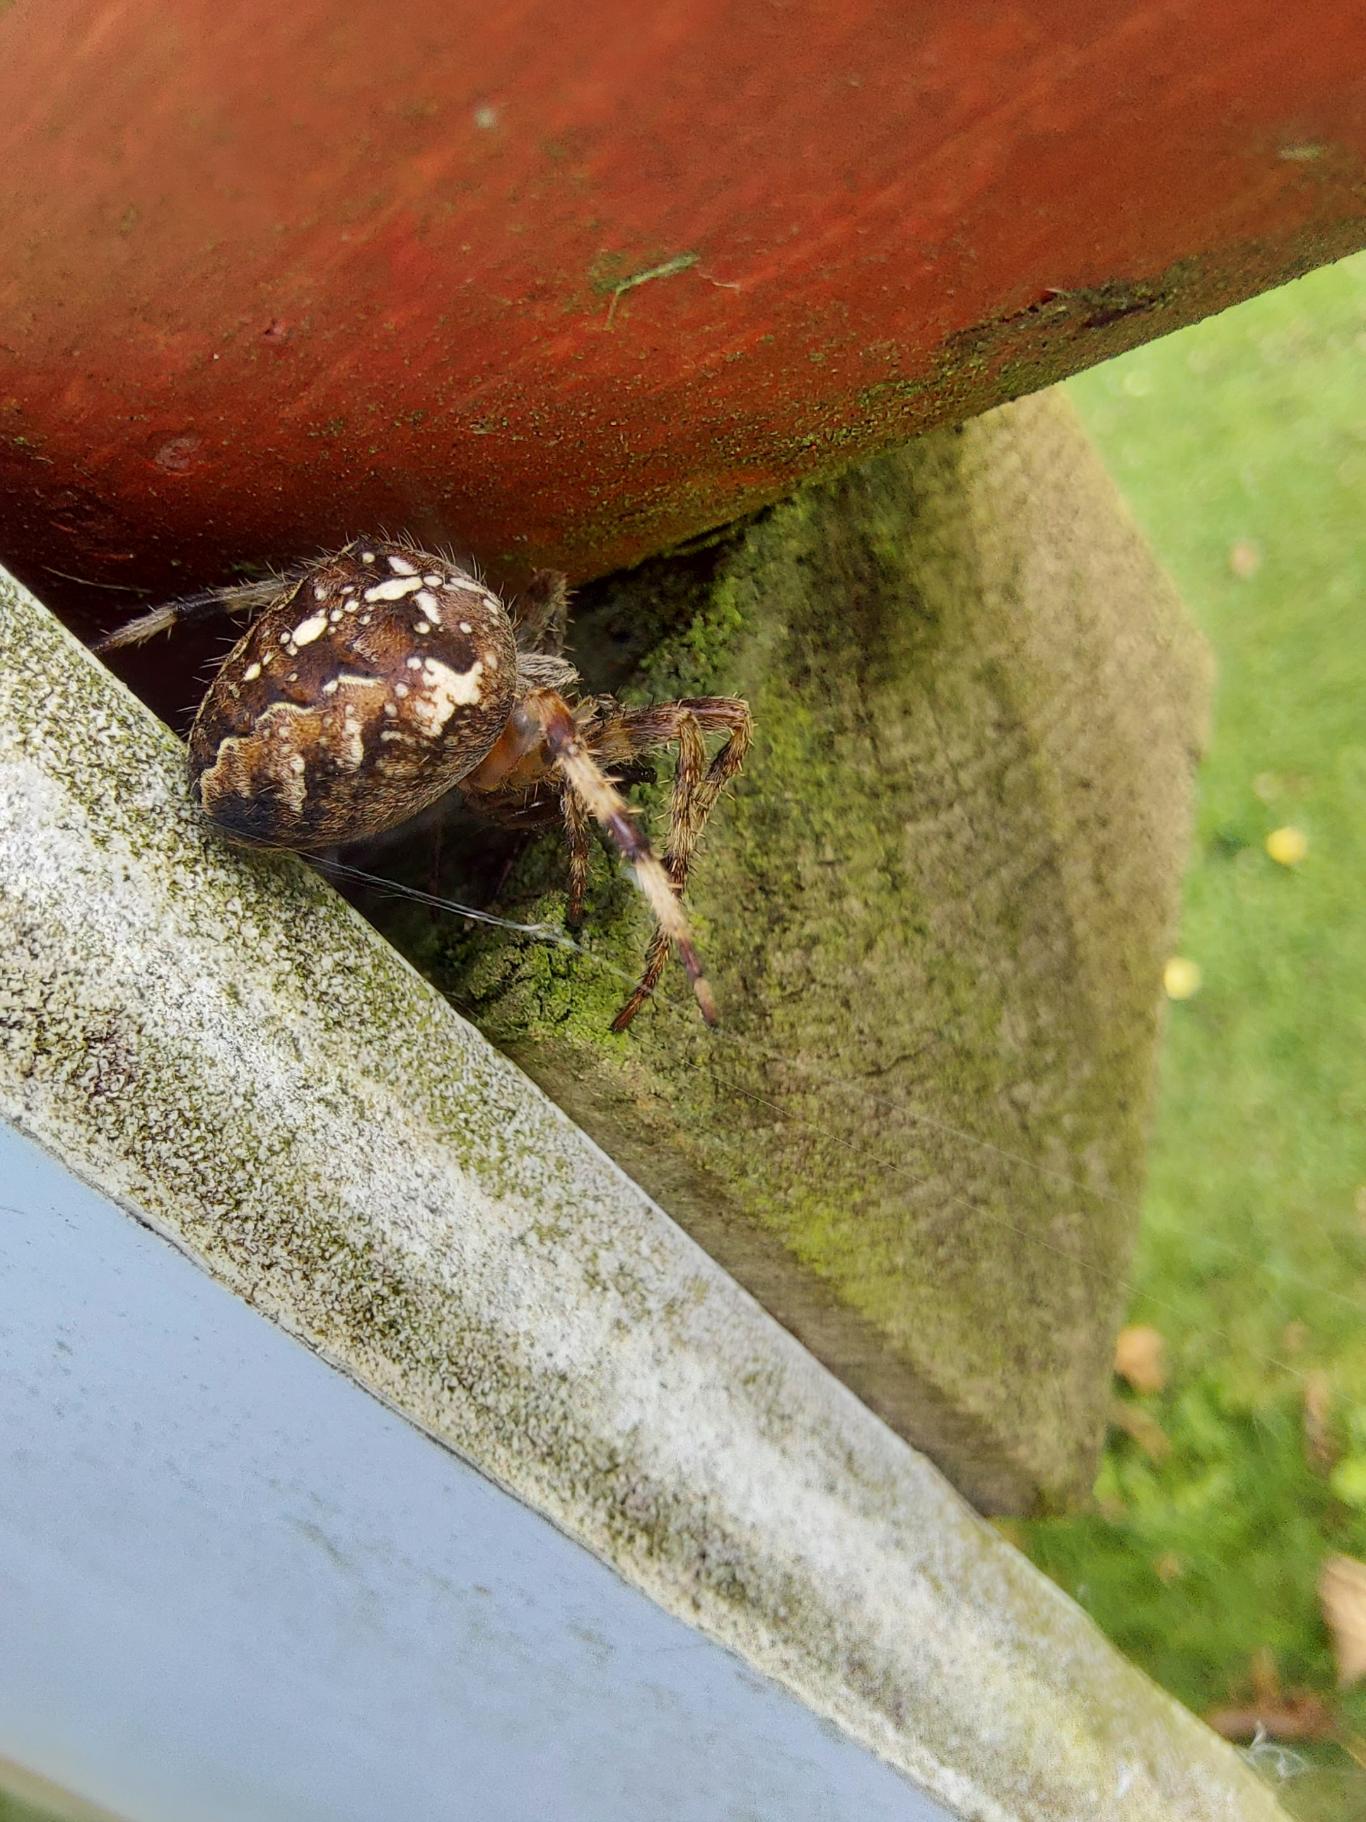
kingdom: Animalia
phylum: Arthropoda
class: Arachnida
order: Araneae
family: Araneidae
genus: Araneus
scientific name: Araneus diadematus
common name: Korsedderkop
